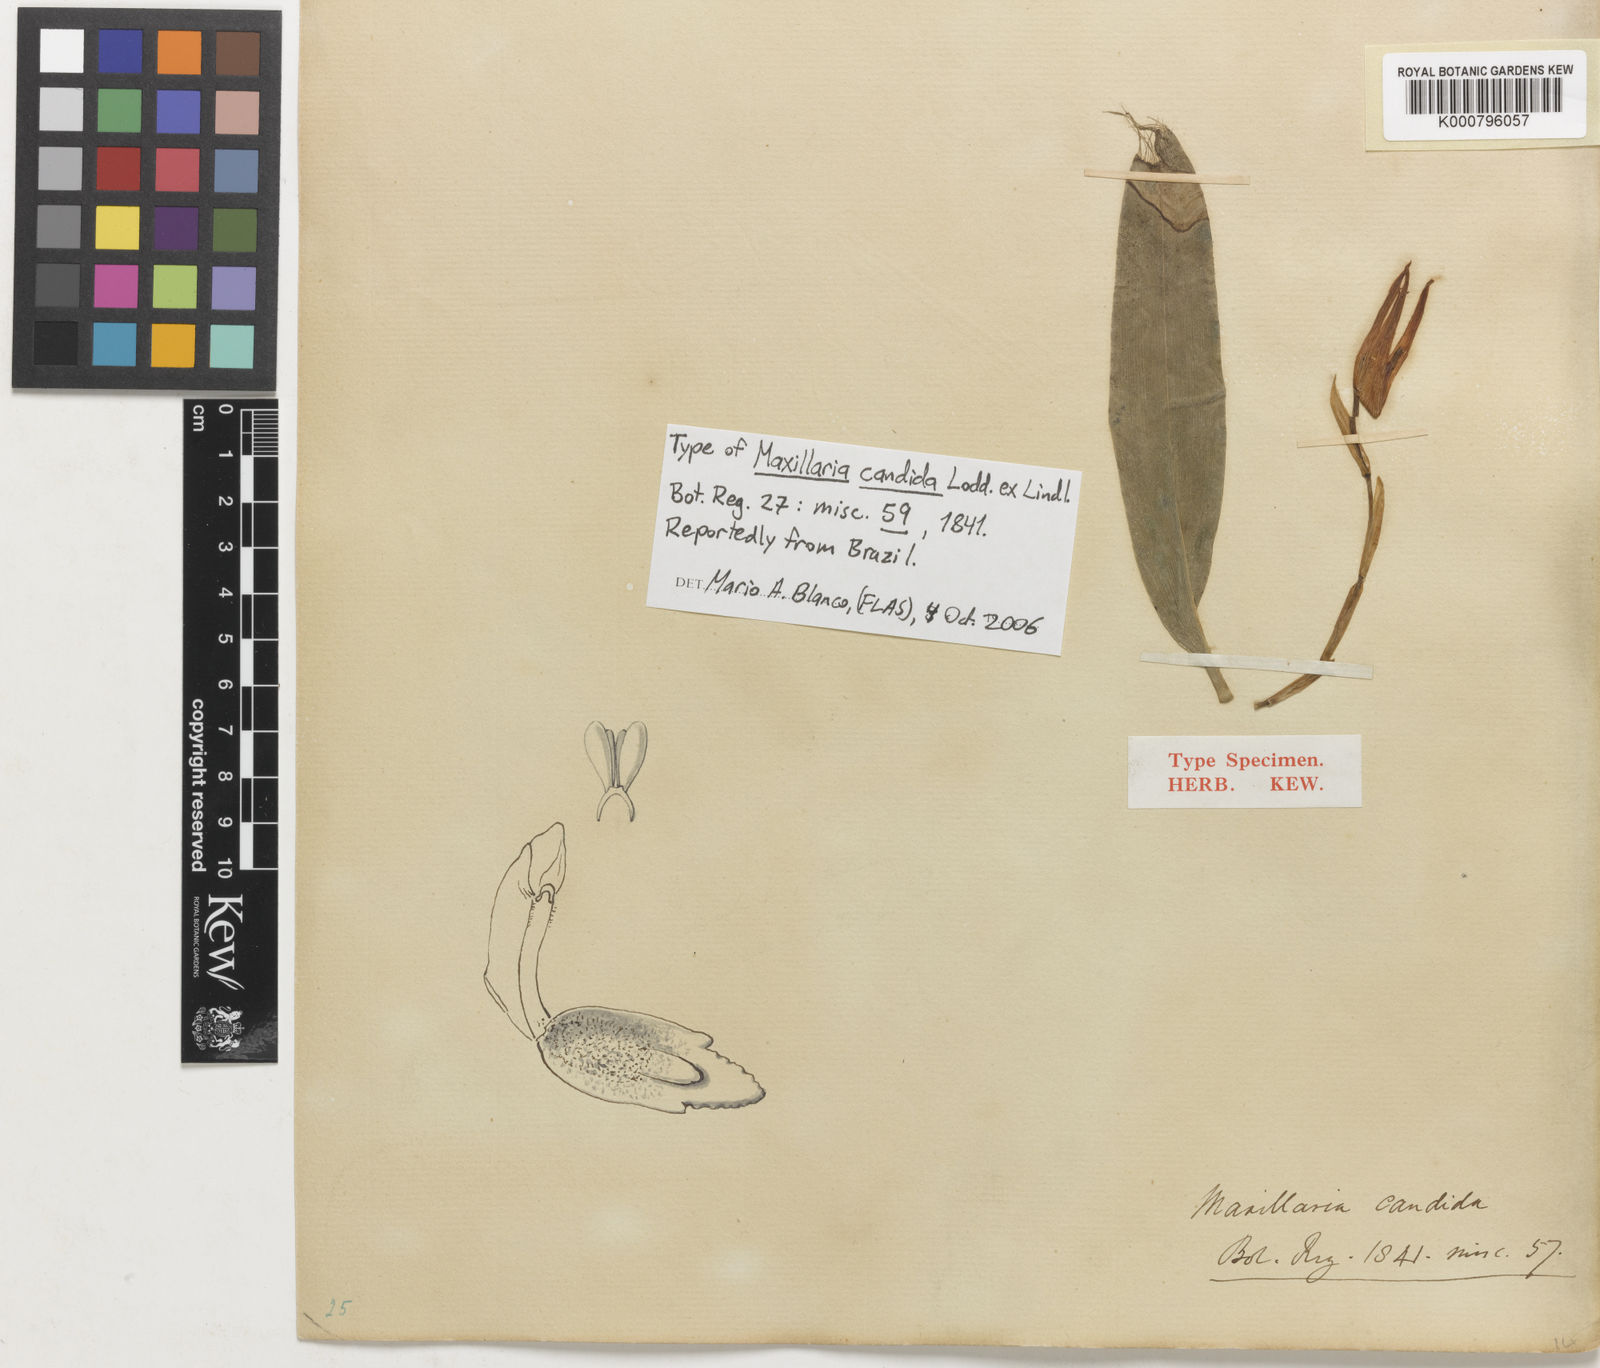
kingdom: Plantae
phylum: Tracheophyta
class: Liliopsida
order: Asparagales
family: Orchidaceae
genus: Maxillaria
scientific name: Maxillaria candida
